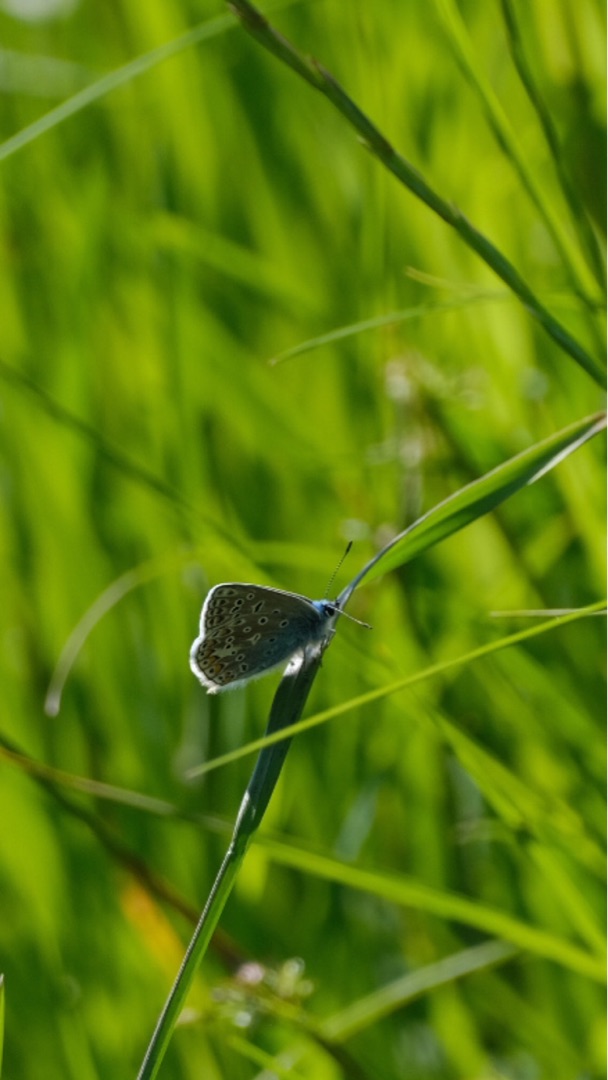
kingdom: Animalia
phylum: Arthropoda
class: Insecta
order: Lepidoptera
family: Lycaenidae
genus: Polyommatus
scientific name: Polyommatus icarus
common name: Almindelig blåfugl
